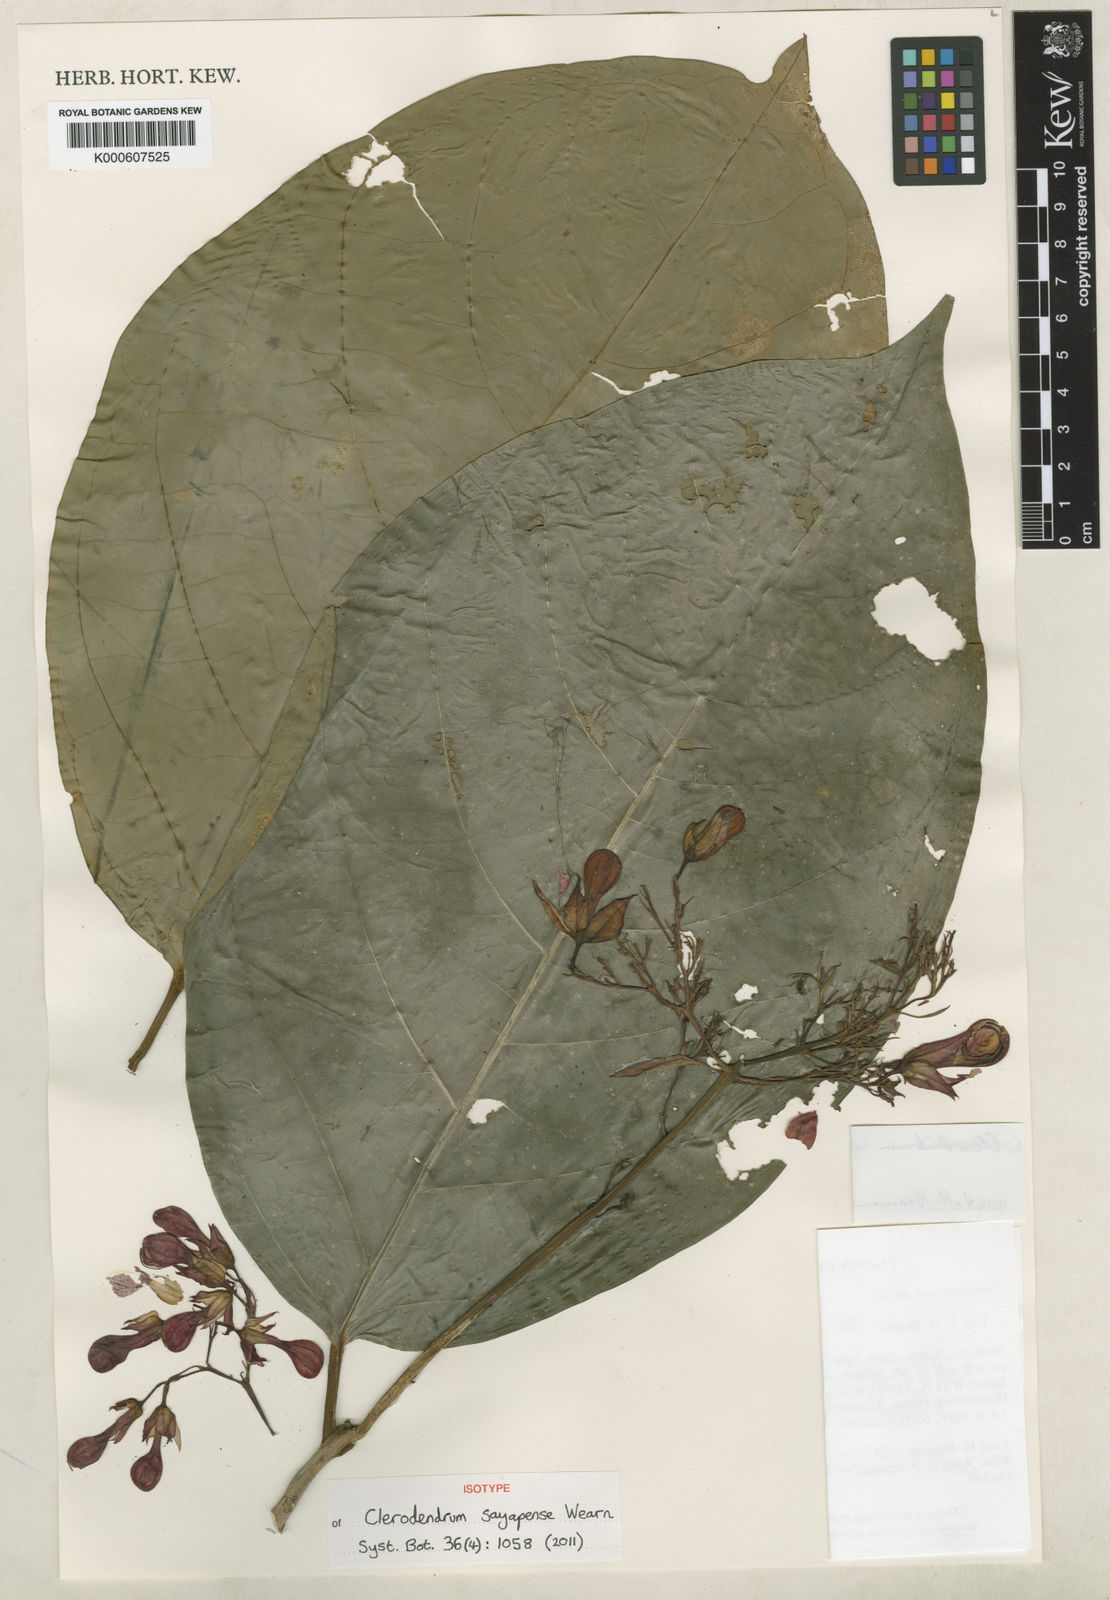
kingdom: Plantae
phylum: Tracheophyta
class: Magnoliopsida
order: Lamiales
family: Lamiaceae
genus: Clerodendrum
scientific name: Clerodendrum sayapense
